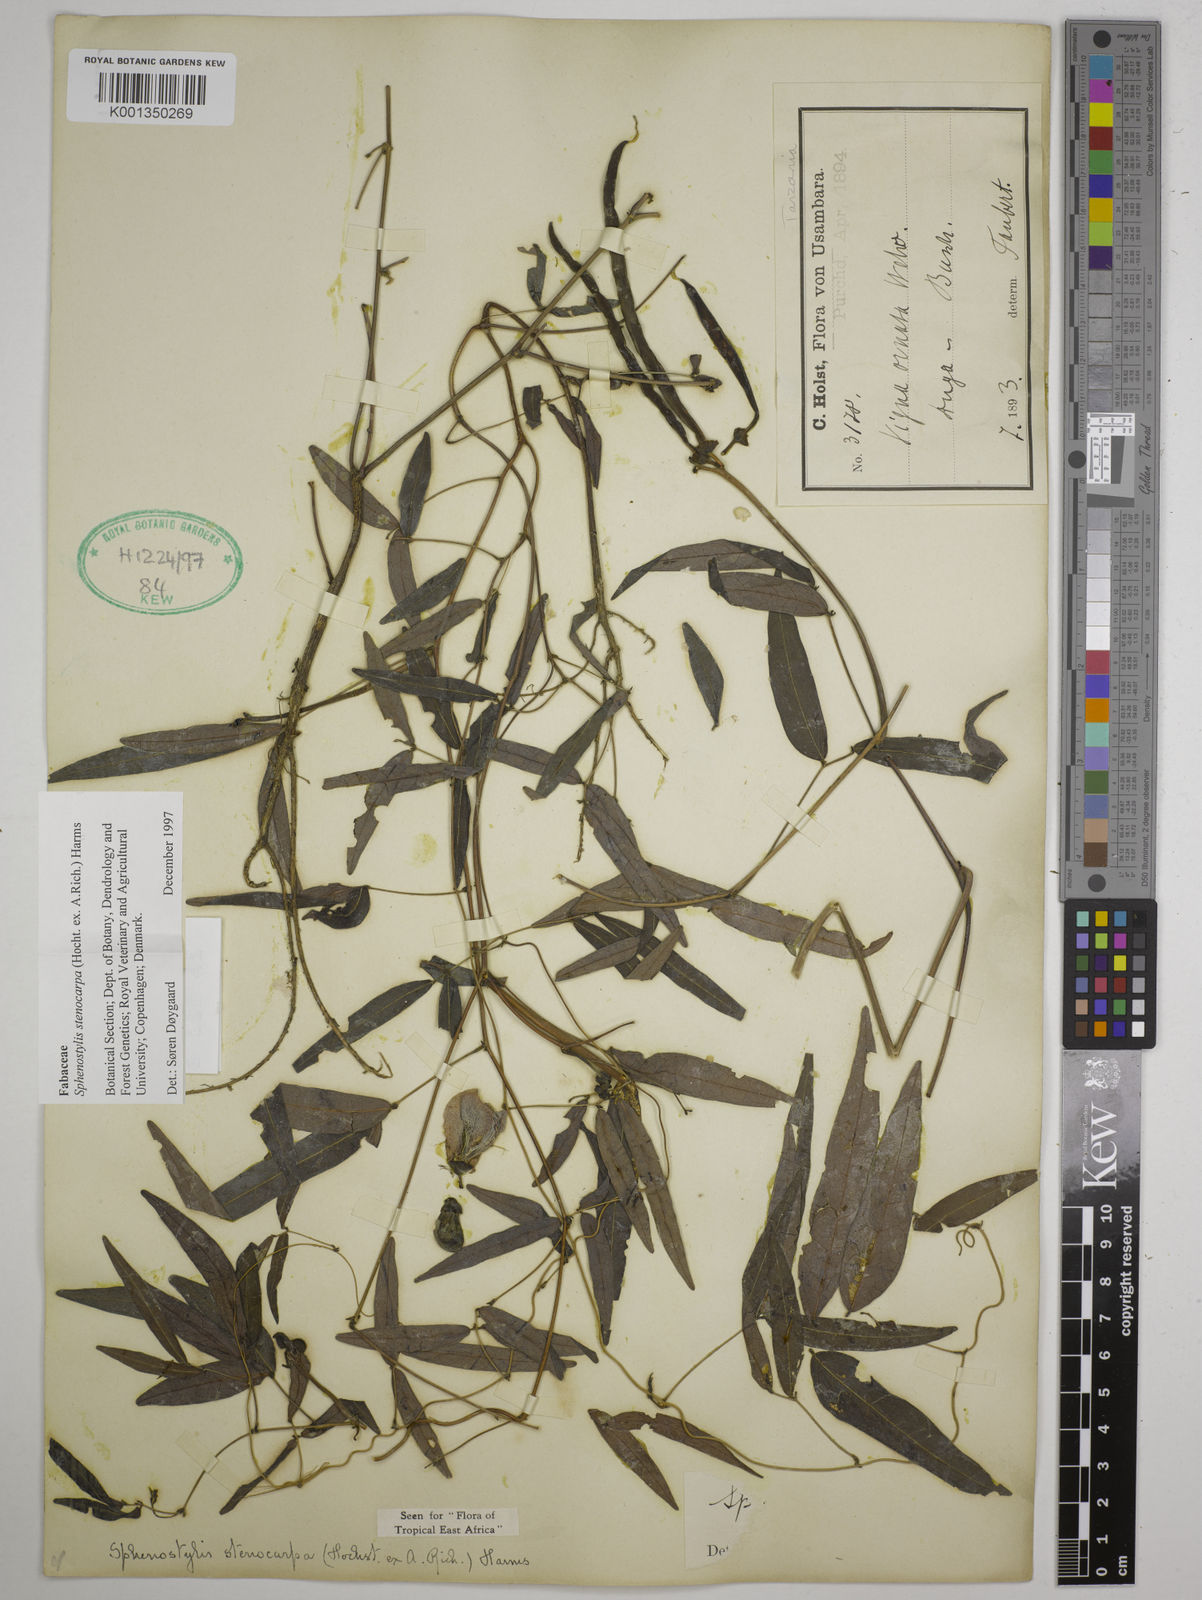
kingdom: Plantae
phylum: Tracheophyta
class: Magnoliopsida
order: Fabales
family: Fabaceae
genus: Sphenostylis
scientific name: Sphenostylis stenocarpa
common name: Yam-pea
